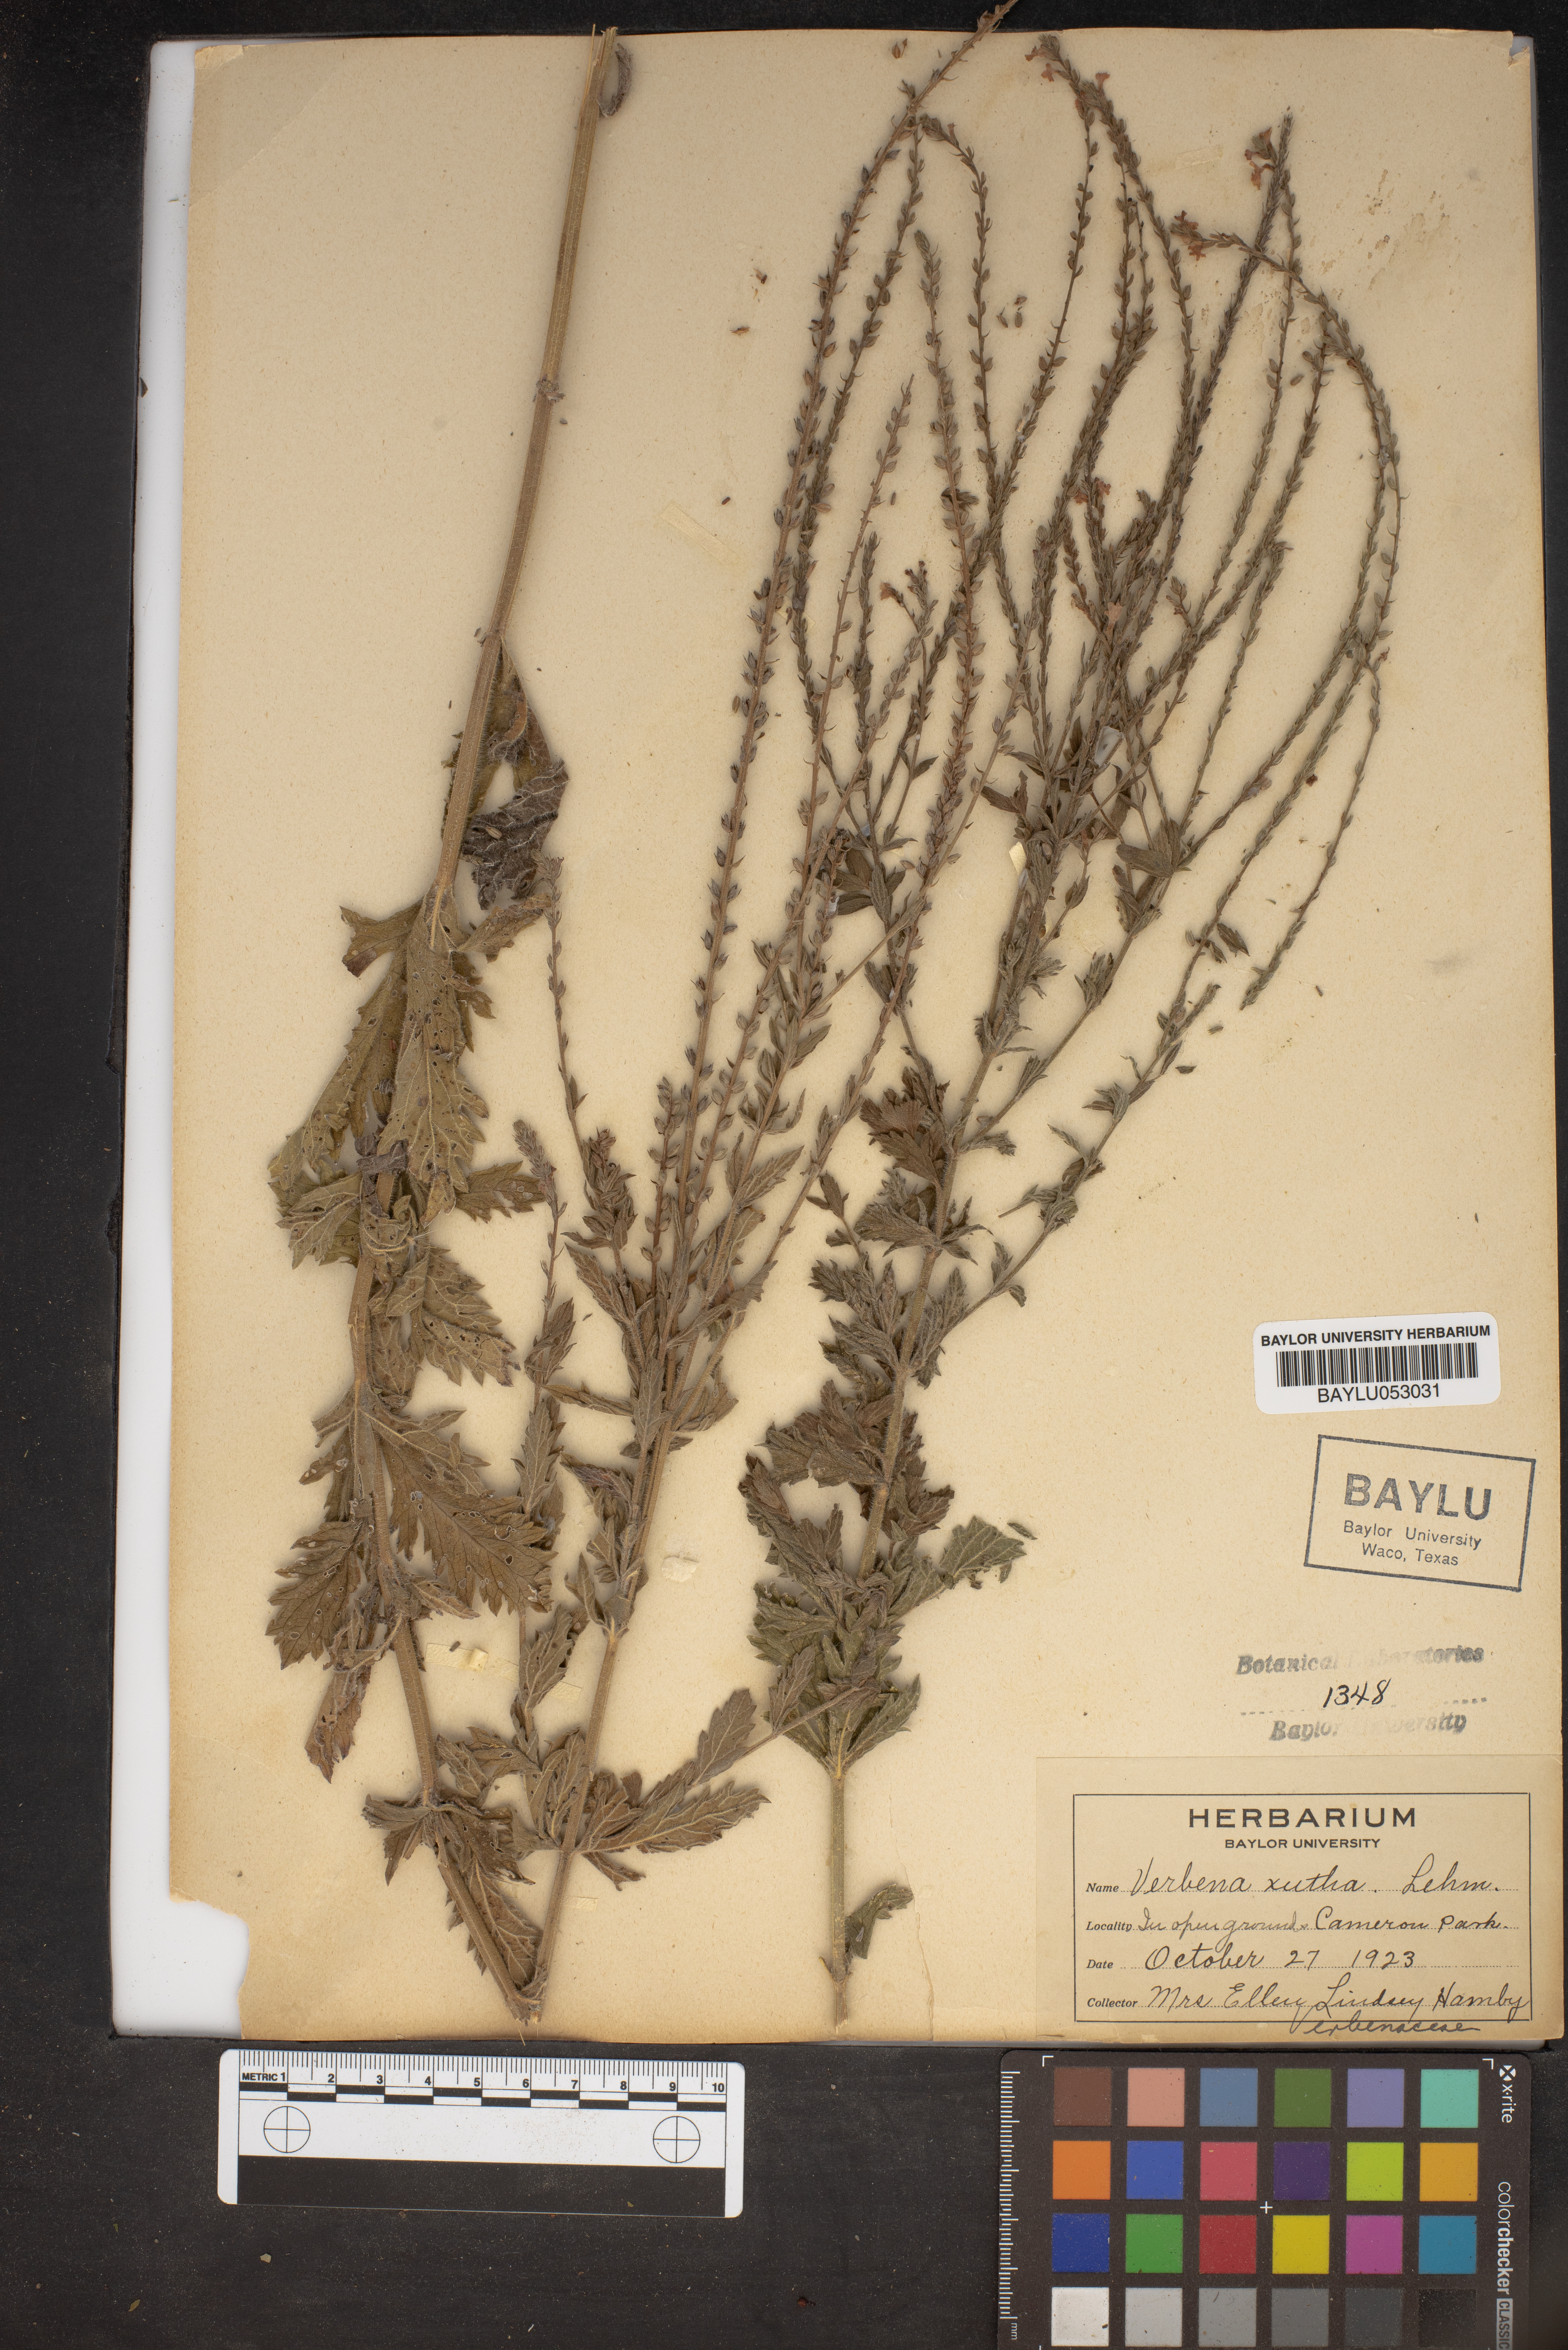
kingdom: Plantae
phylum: Tracheophyta
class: Magnoliopsida
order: Lamiales
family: Verbenaceae
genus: Verbena
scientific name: Verbena xutha
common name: Gulf vervain
